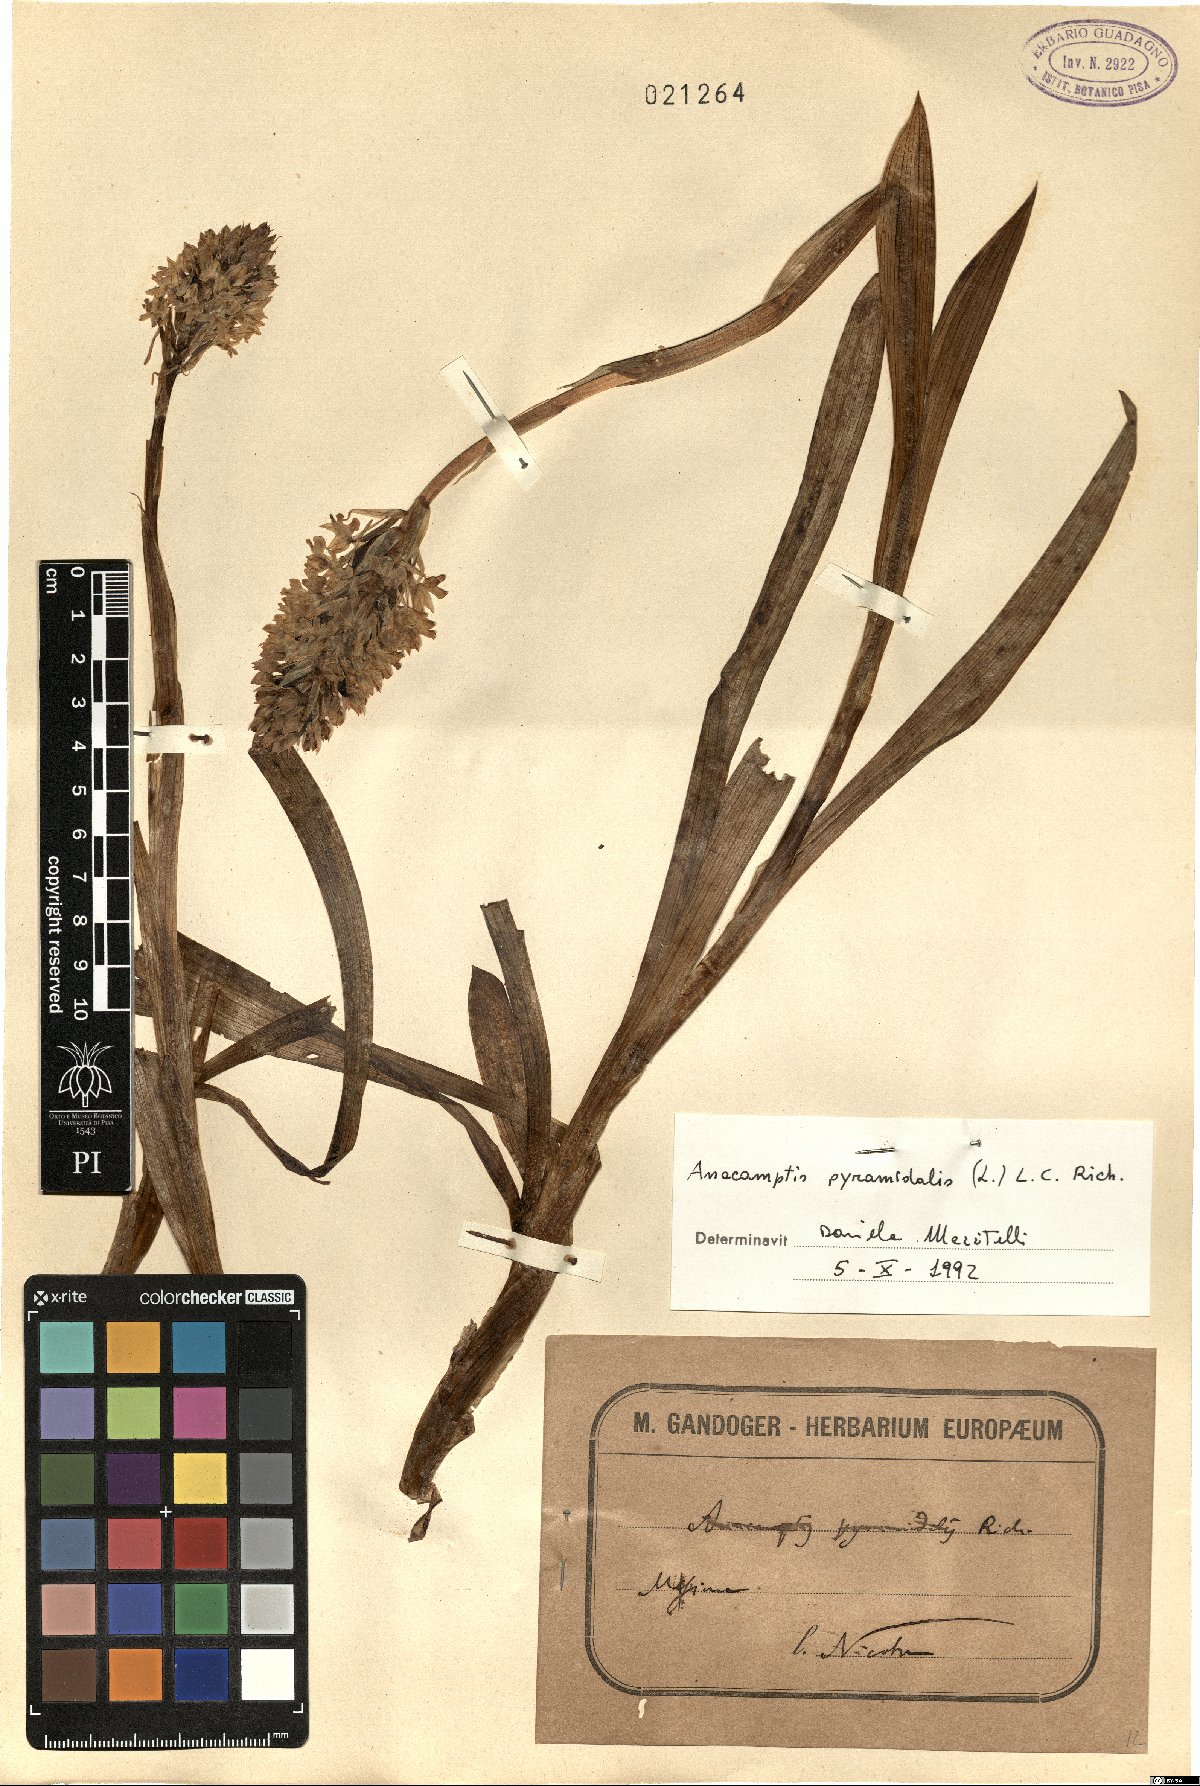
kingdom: Plantae
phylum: Tracheophyta
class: Liliopsida
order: Asparagales
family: Orchidaceae
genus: Anacamptis
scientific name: Anacamptis pyramidalis
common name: Pyramidal orchid
